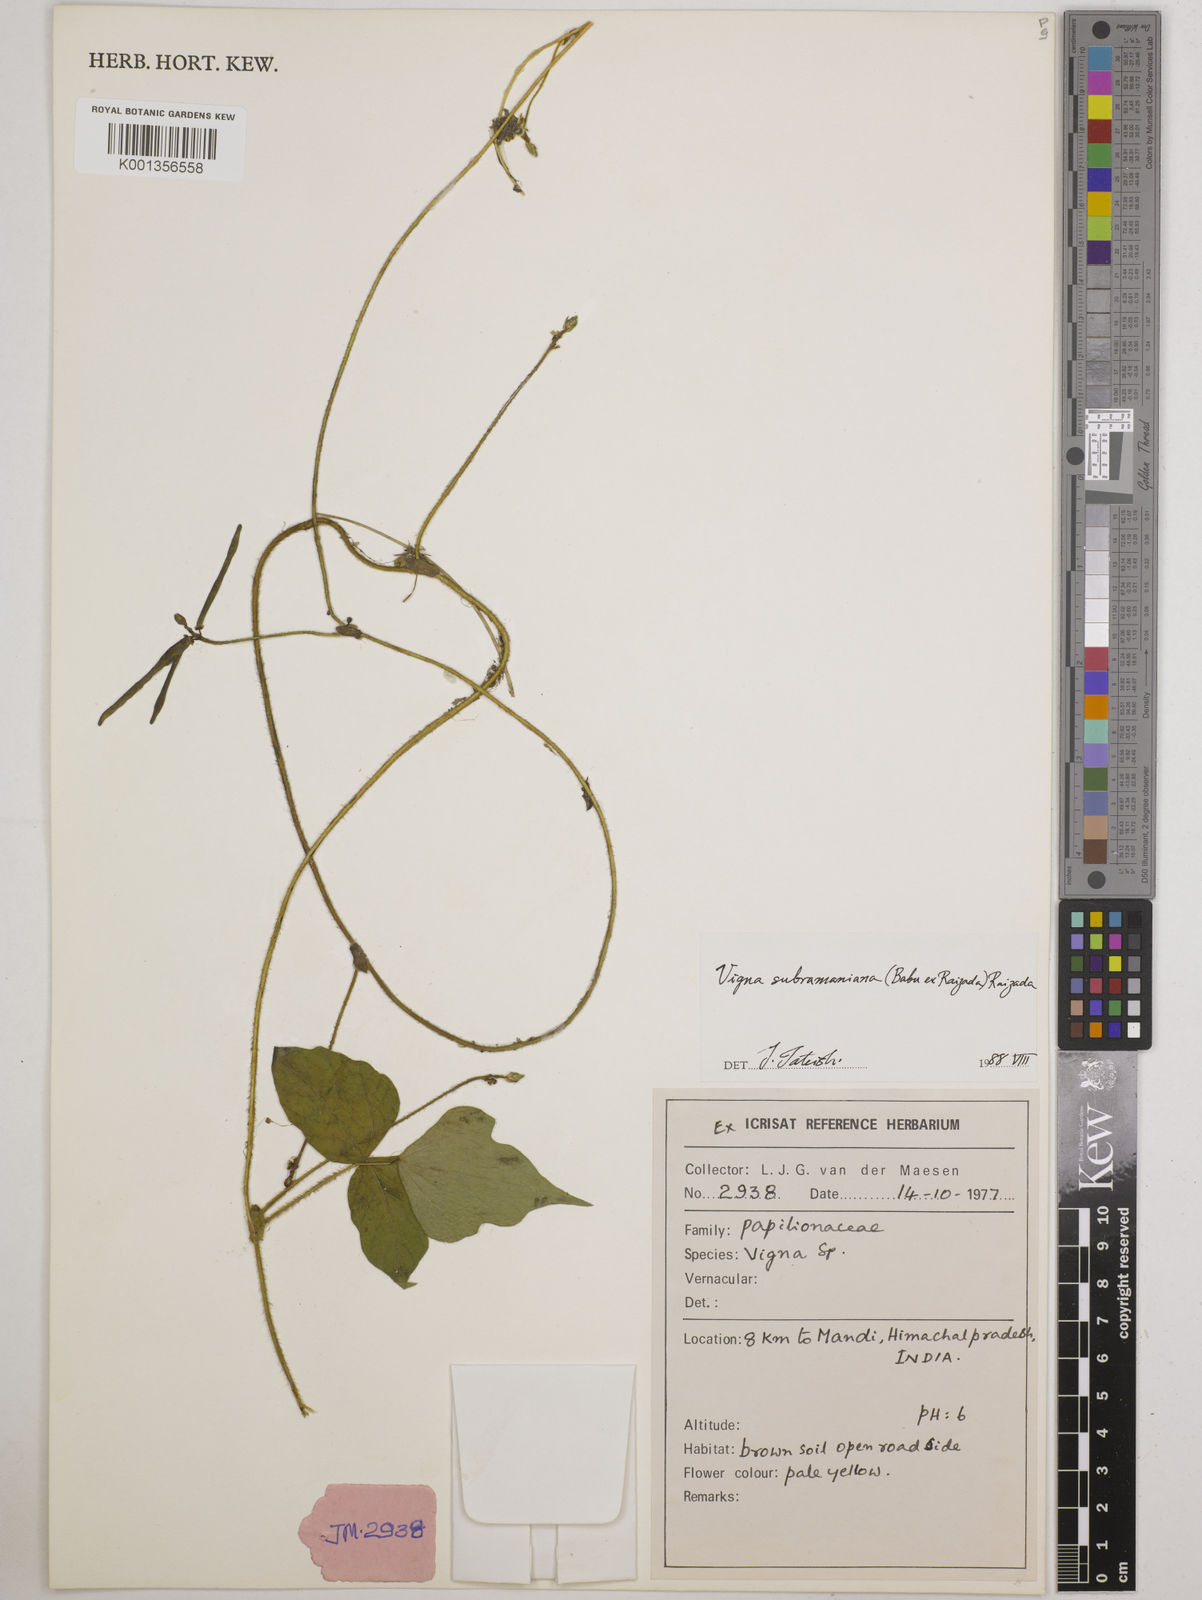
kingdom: Plantae
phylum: Tracheophyta
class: Magnoliopsida
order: Fabales
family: Fabaceae
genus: Vigna
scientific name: Vigna subramaniana
